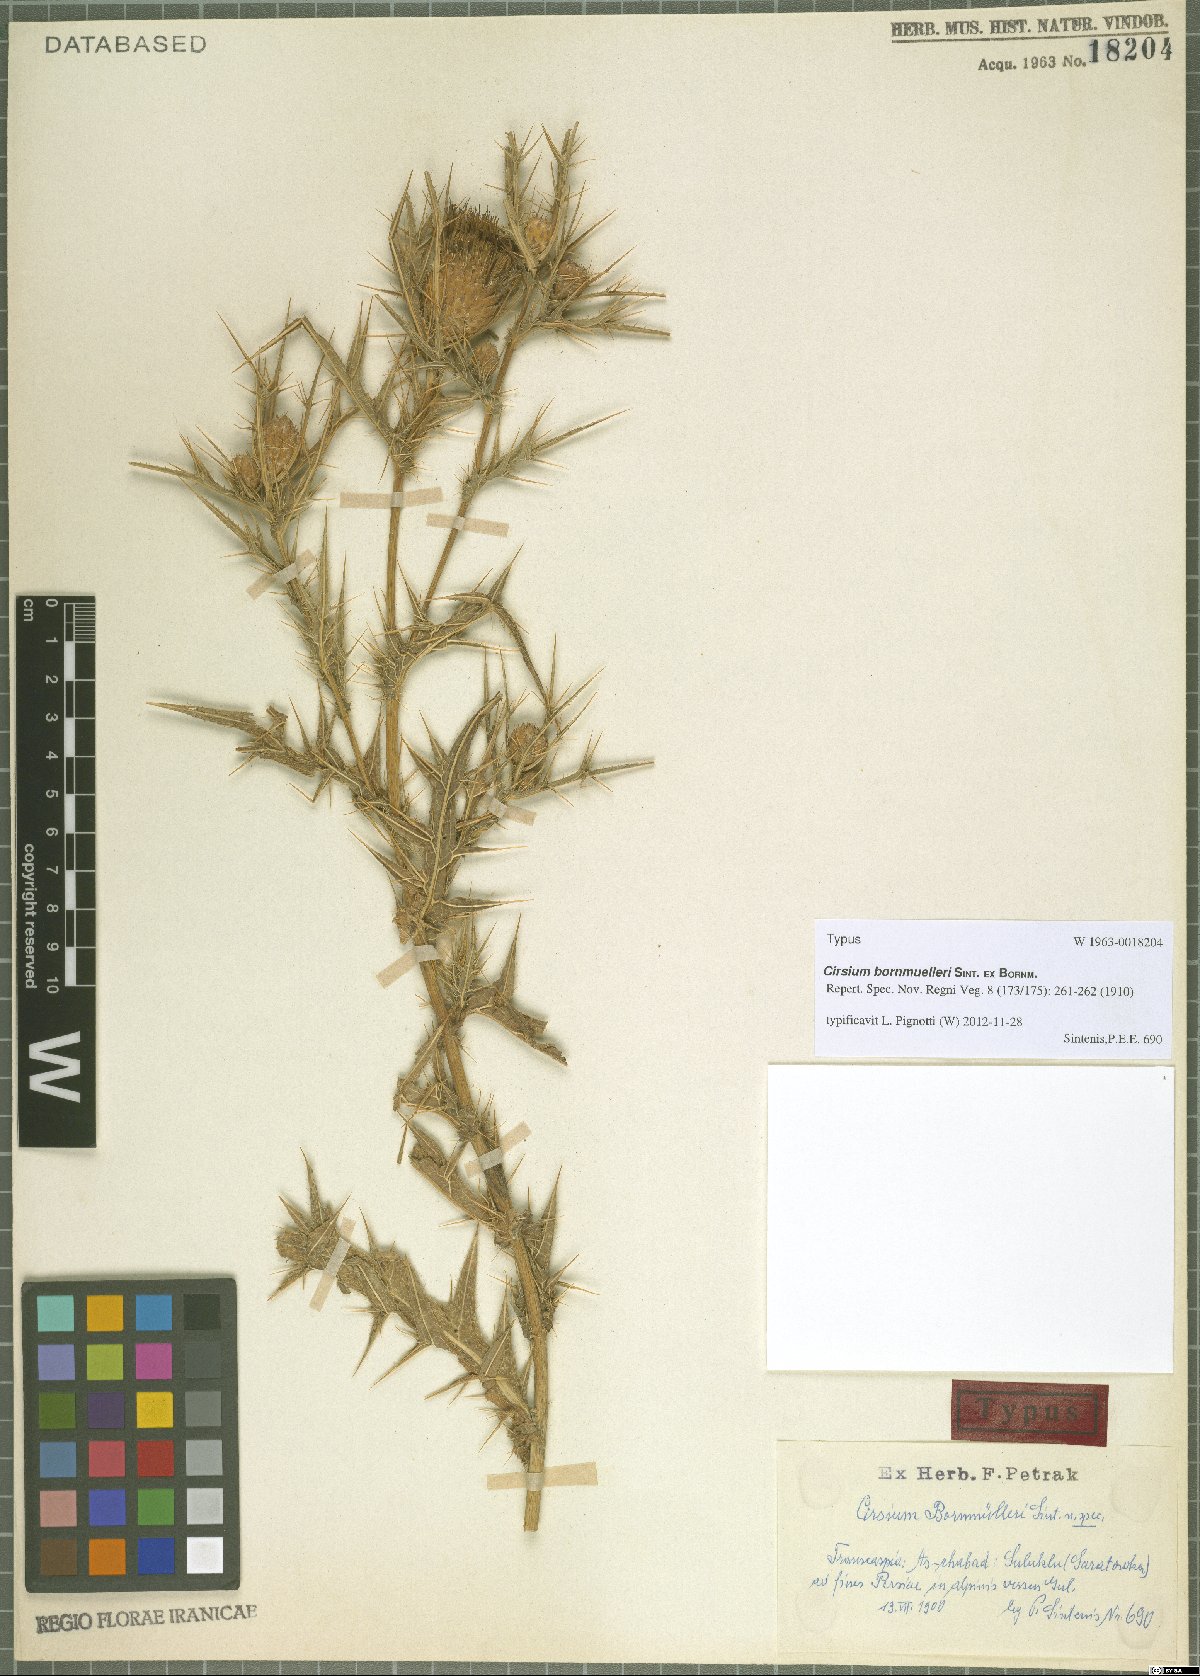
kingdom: Plantae
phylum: Tracheophyta
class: Magnoliopsida
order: Asterales
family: Asteraceae
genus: Lophiolepis
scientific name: Lophiolepis bornmuelleri
